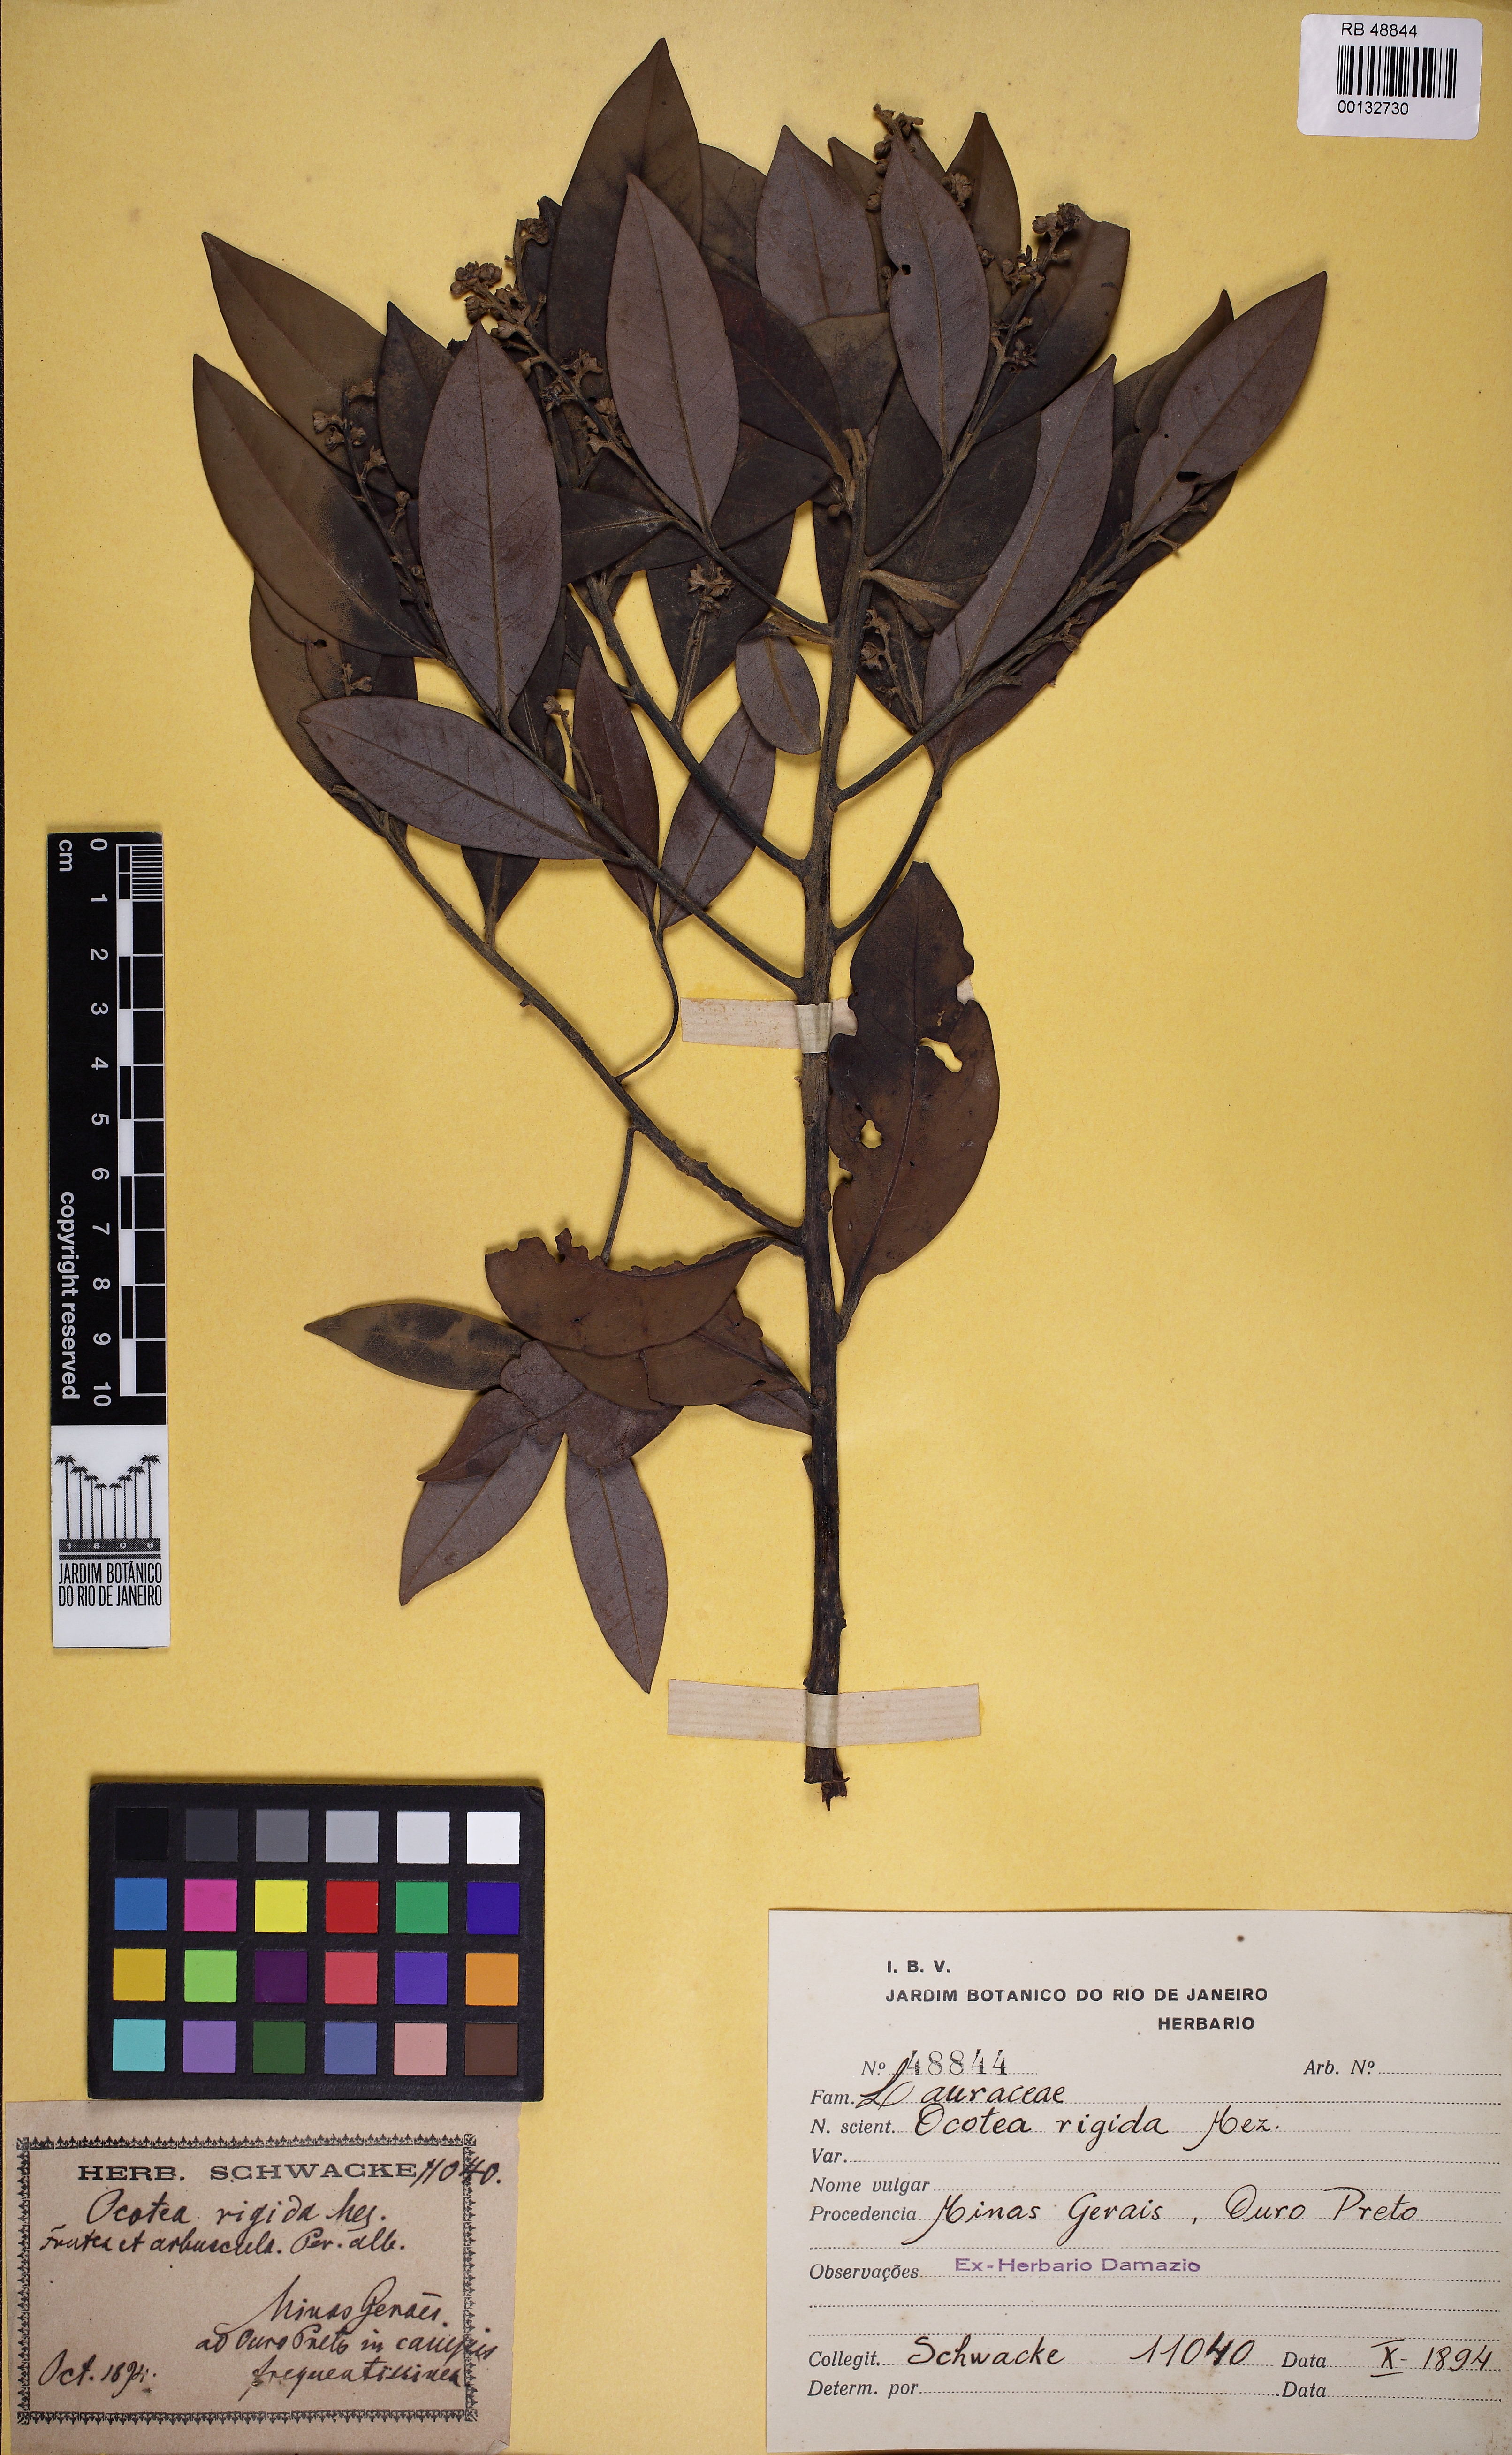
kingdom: Plantae
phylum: Tracheophyta
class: Magnoliopsida
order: Laurales
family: Lauraceae
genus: Ocotea
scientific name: Ocotea percoriacea
